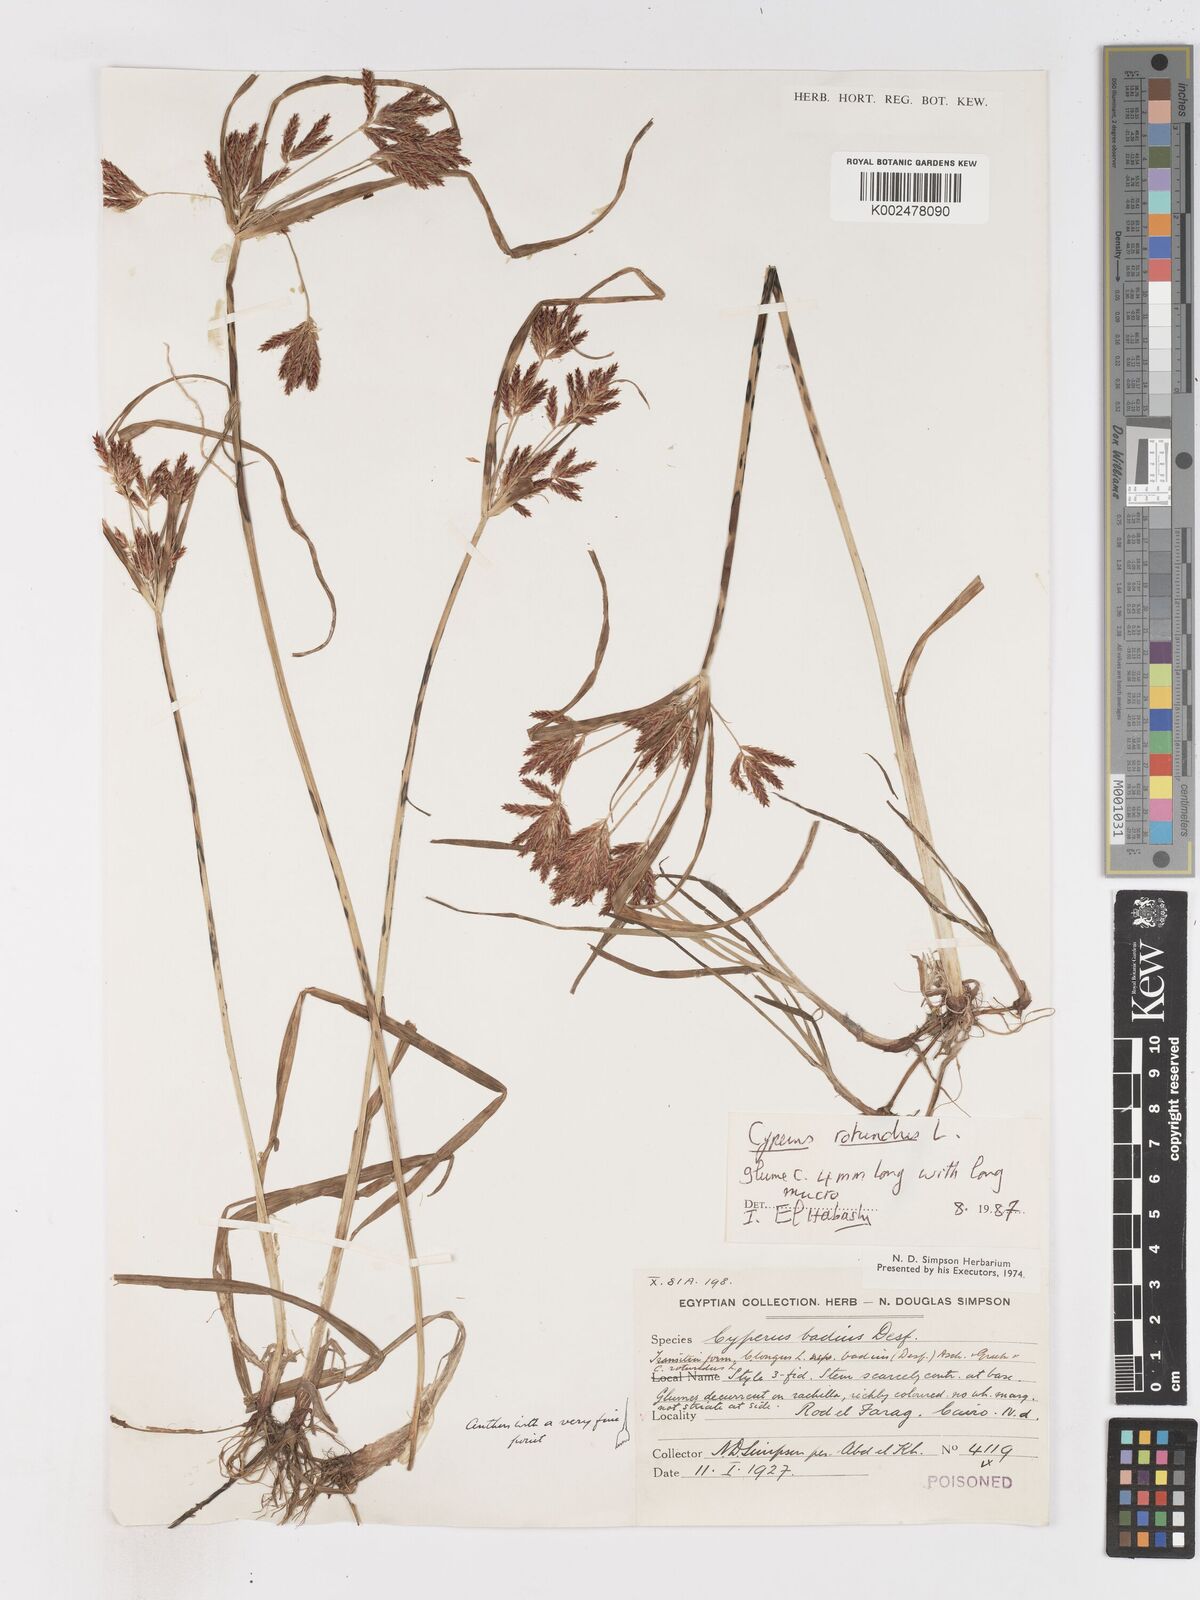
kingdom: Plantae
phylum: Tracheophyta
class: Liliopsida
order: Poales
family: Cyperaceae
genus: Cyperus
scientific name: Cyperus rotundus
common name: Nutgrass
